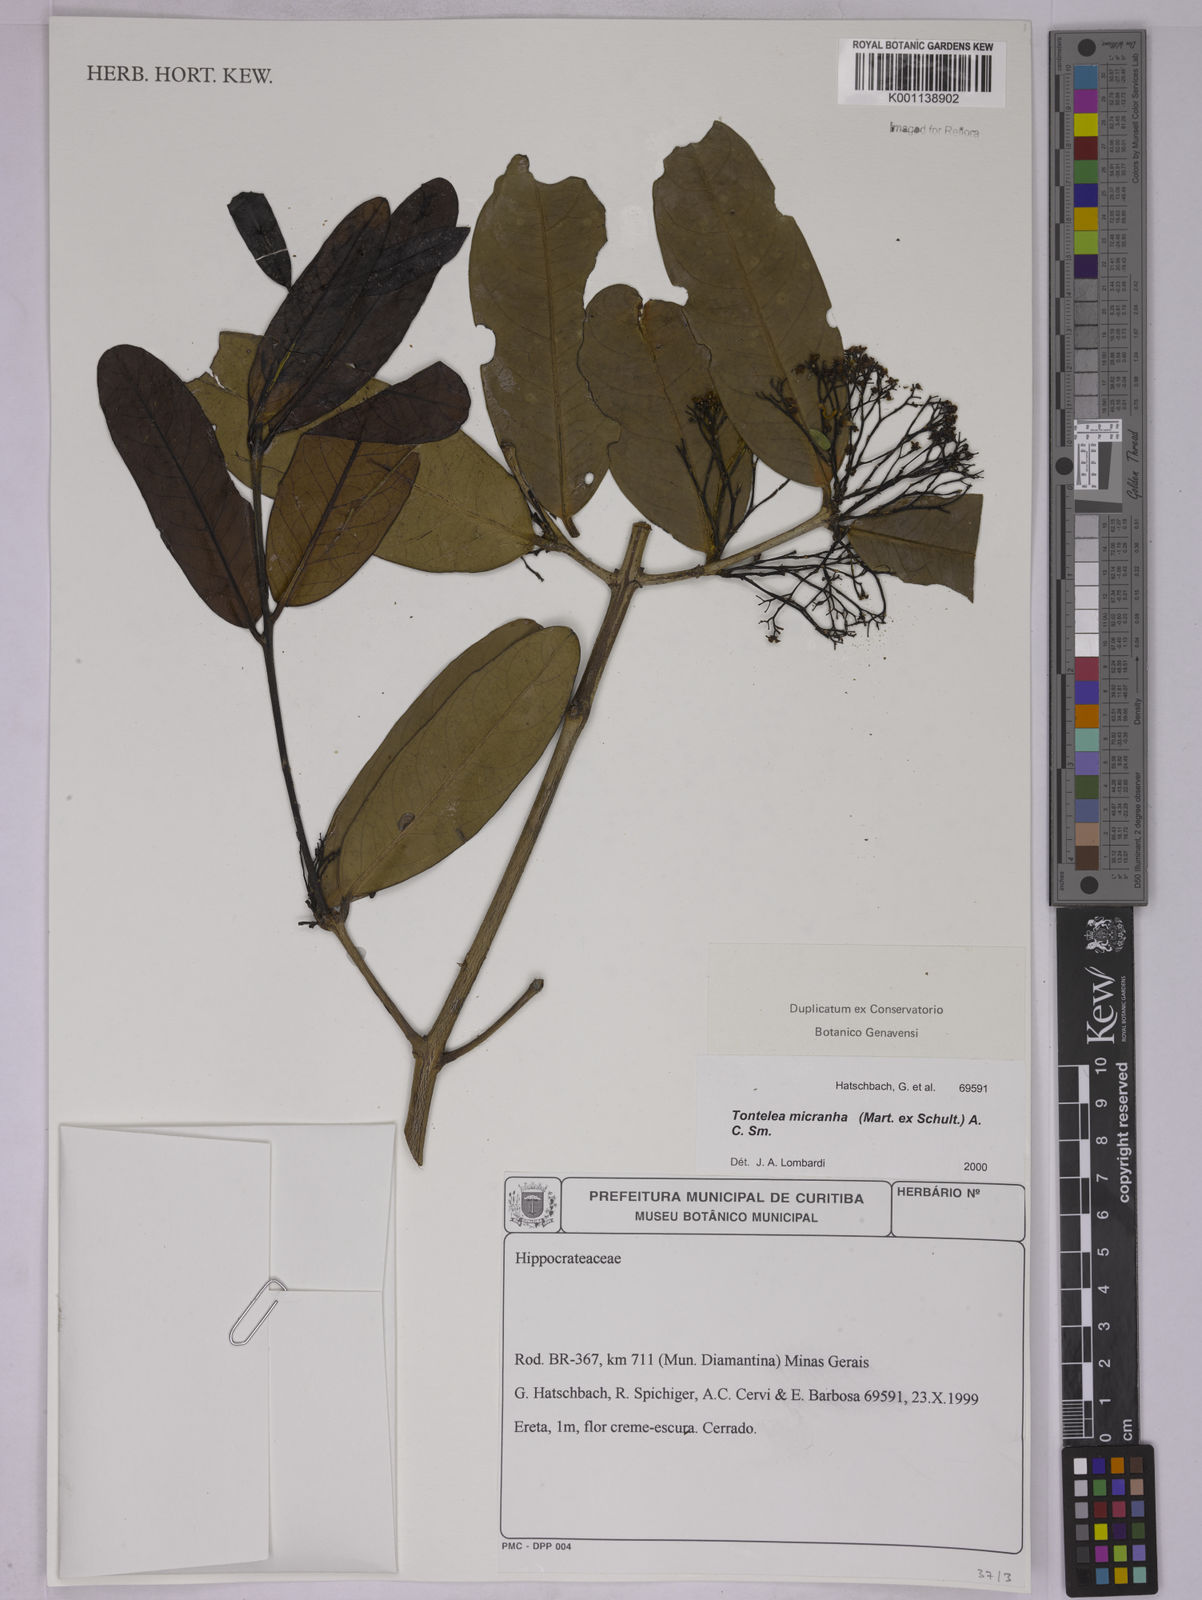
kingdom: Plantae
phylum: Tracheophyta
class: Magnoliopsida
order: Celastrales
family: Celastraceae
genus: Tontelea
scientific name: Tontelea micrantha
